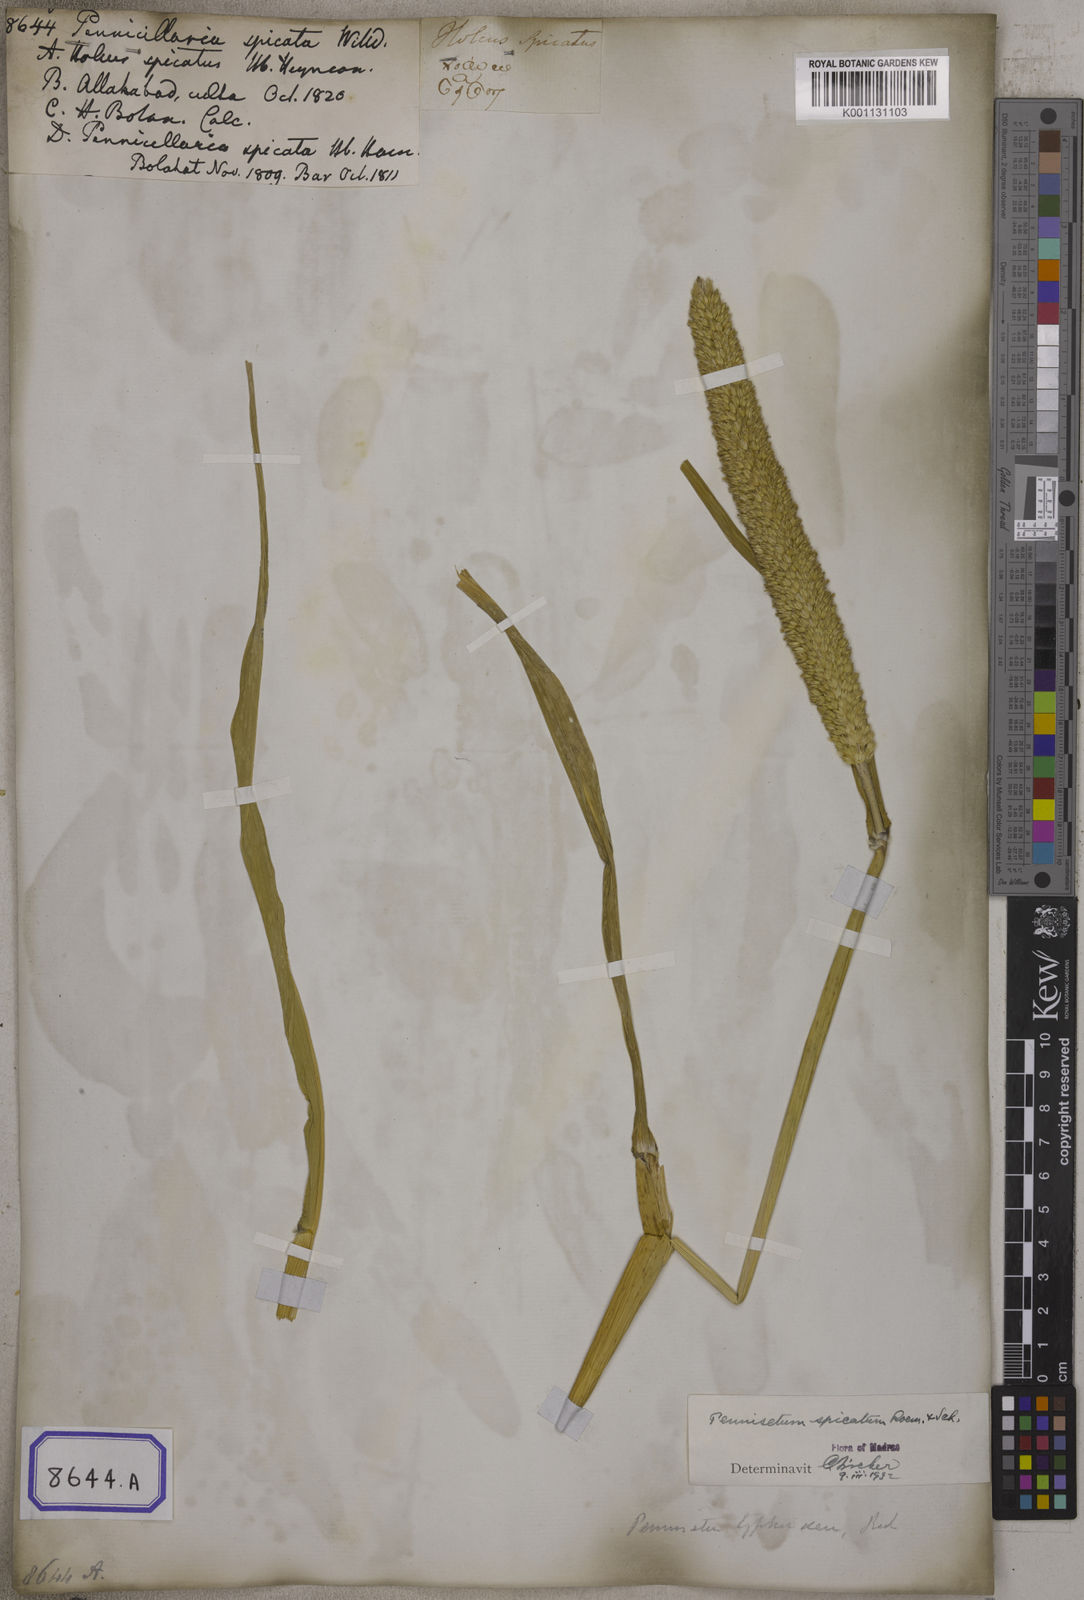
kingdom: Plantae
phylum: Tracheophyta
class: Liliopsida
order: Poales
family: Poaceae
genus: Cenchrus
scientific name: Cenchrus americanus
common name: Pearl millet
